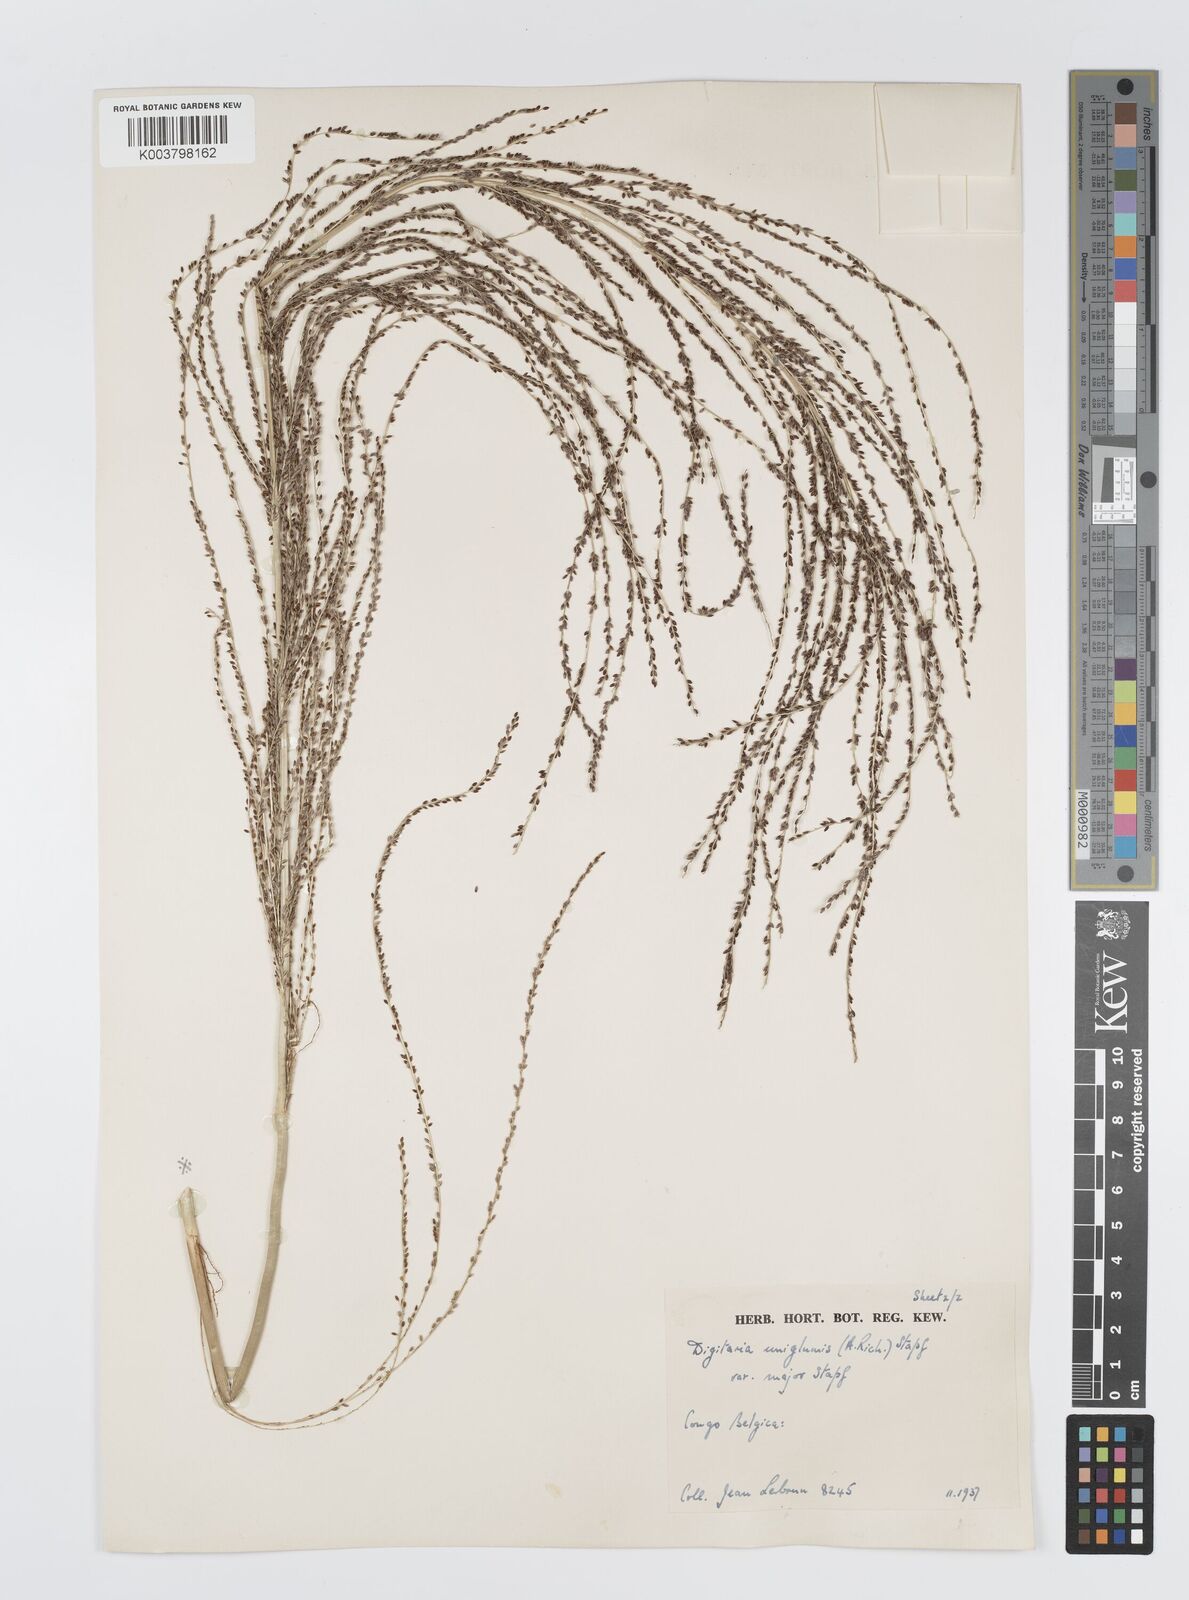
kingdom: Plantae
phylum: Tracheophyta
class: Liliopsida
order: Poales
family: Poaceae
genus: Digitaria
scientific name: Digitaria diagonalis
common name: Brown-seed finger grass
